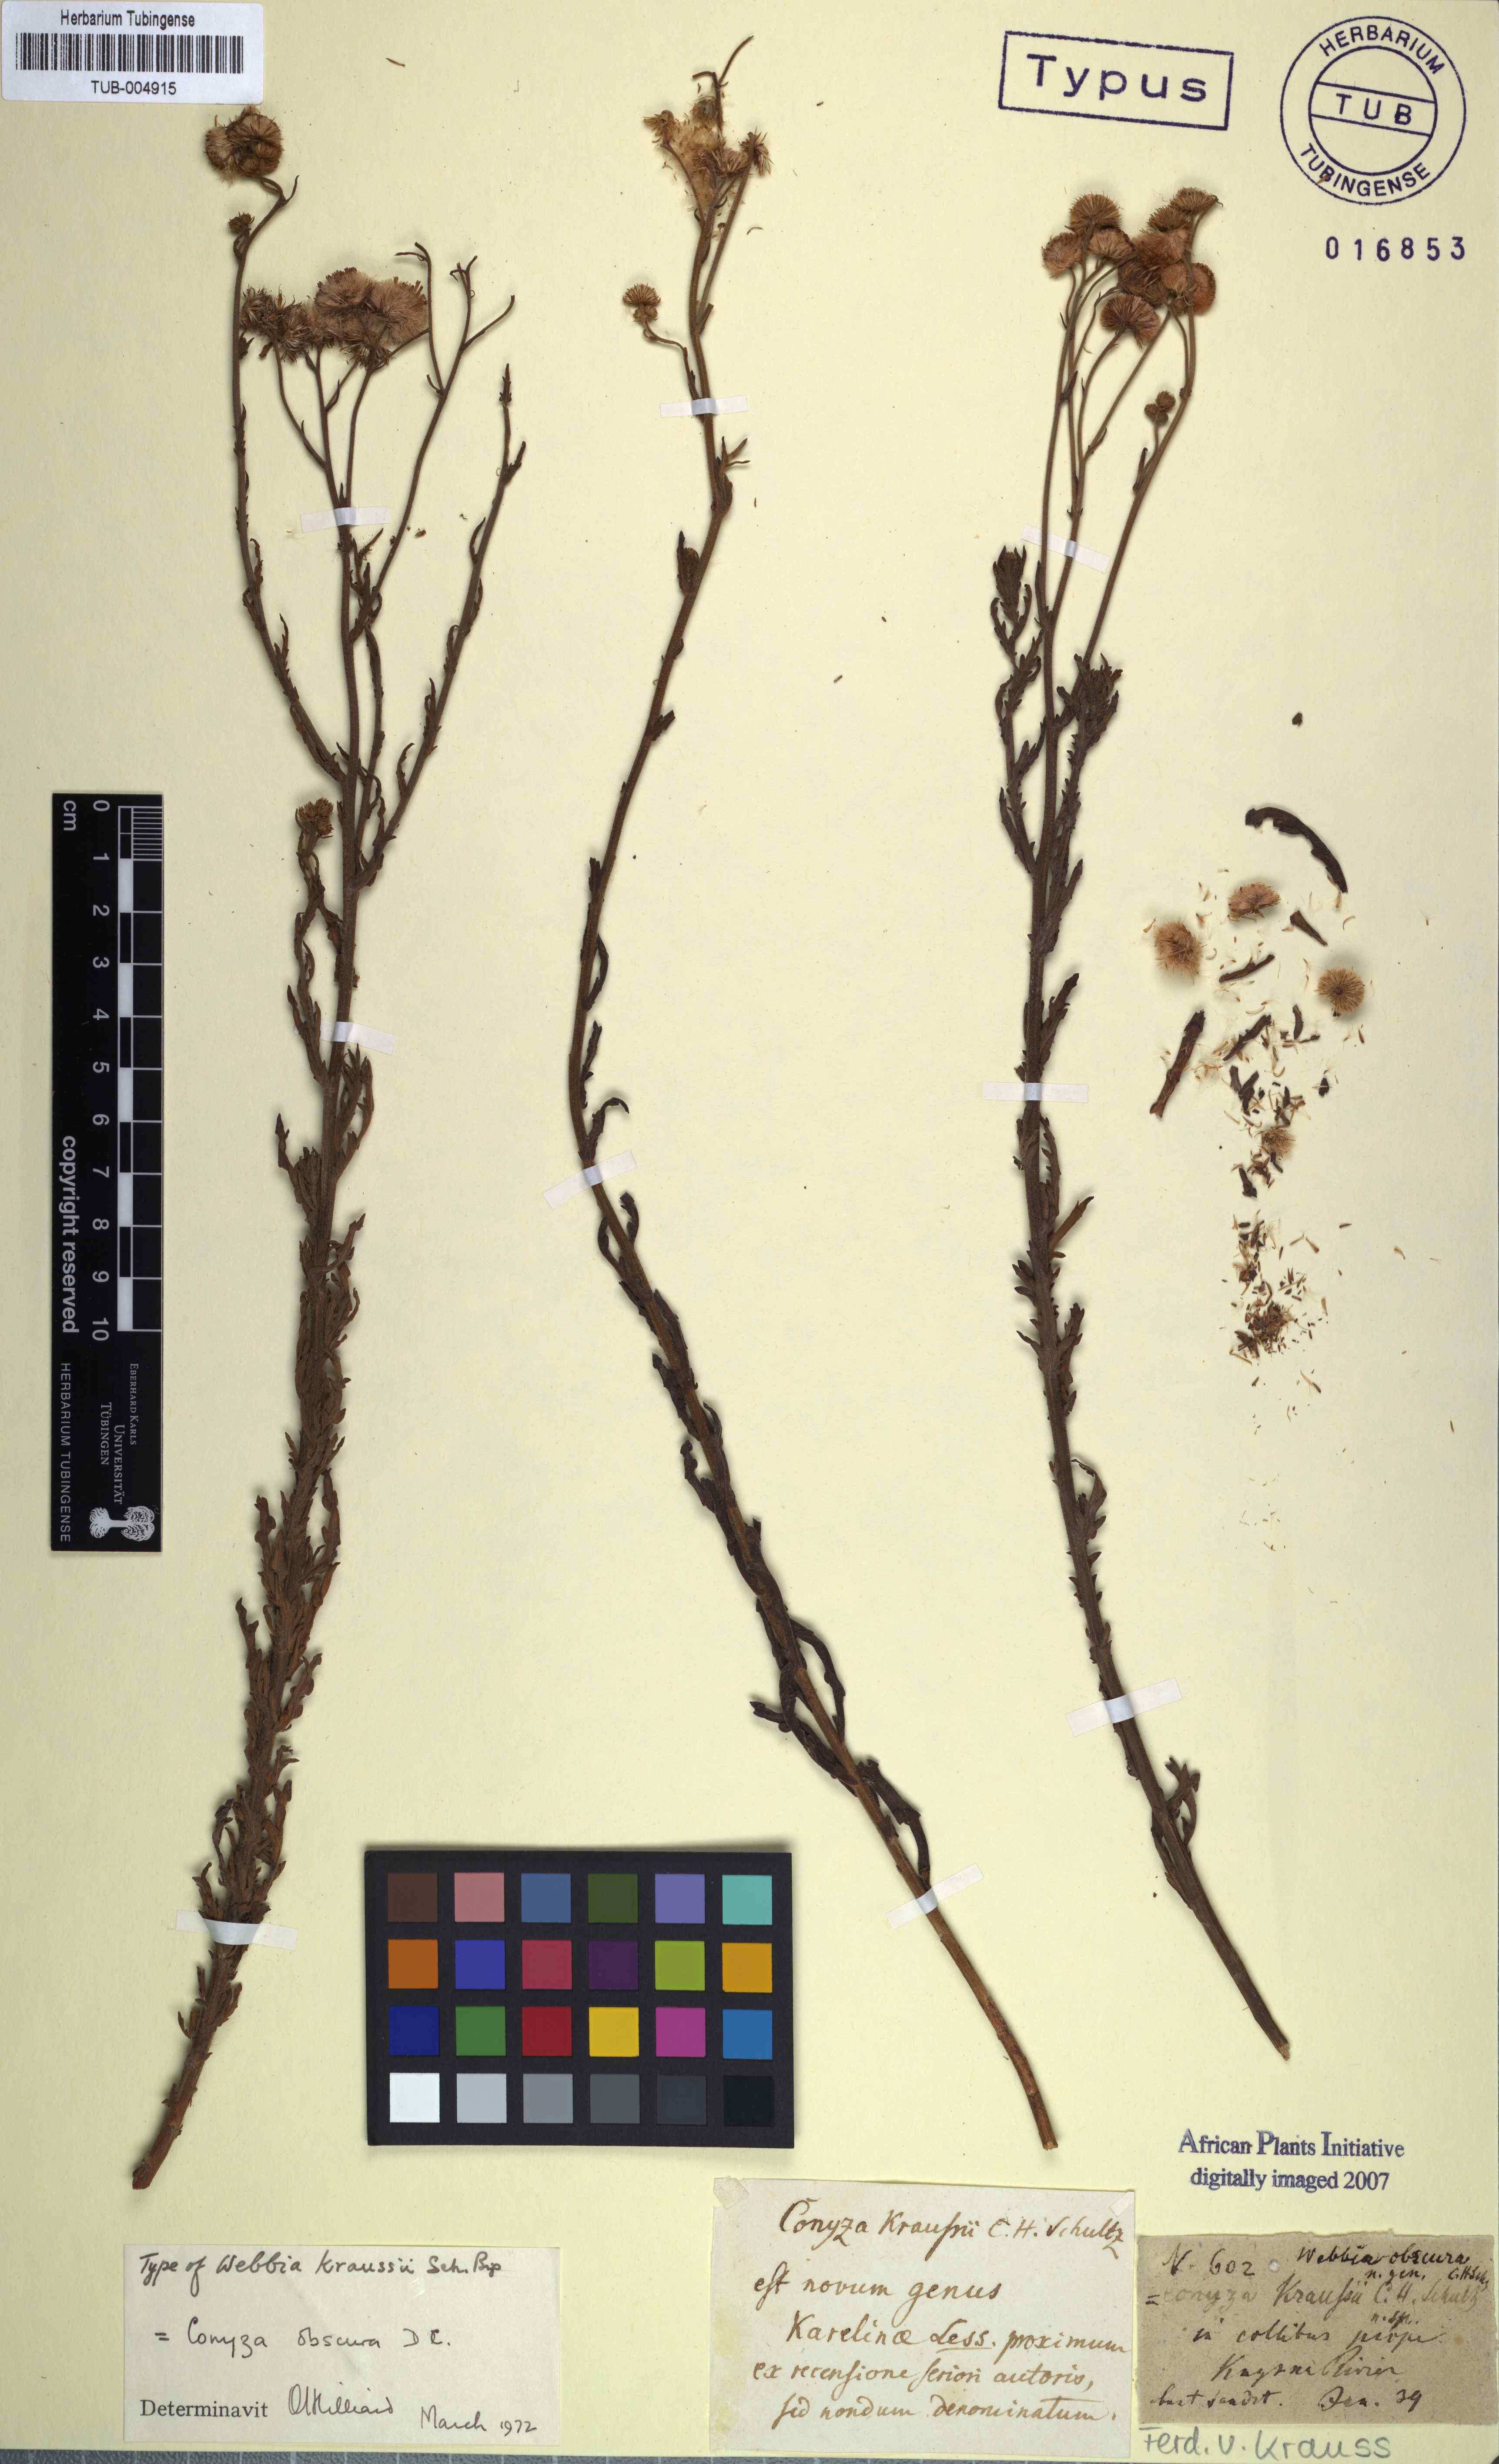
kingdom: Plantae
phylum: Tracheophyta
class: Magnoliopsida
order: Asterales
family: Asteraceae
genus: Nidorella
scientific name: Nidorella obscura
